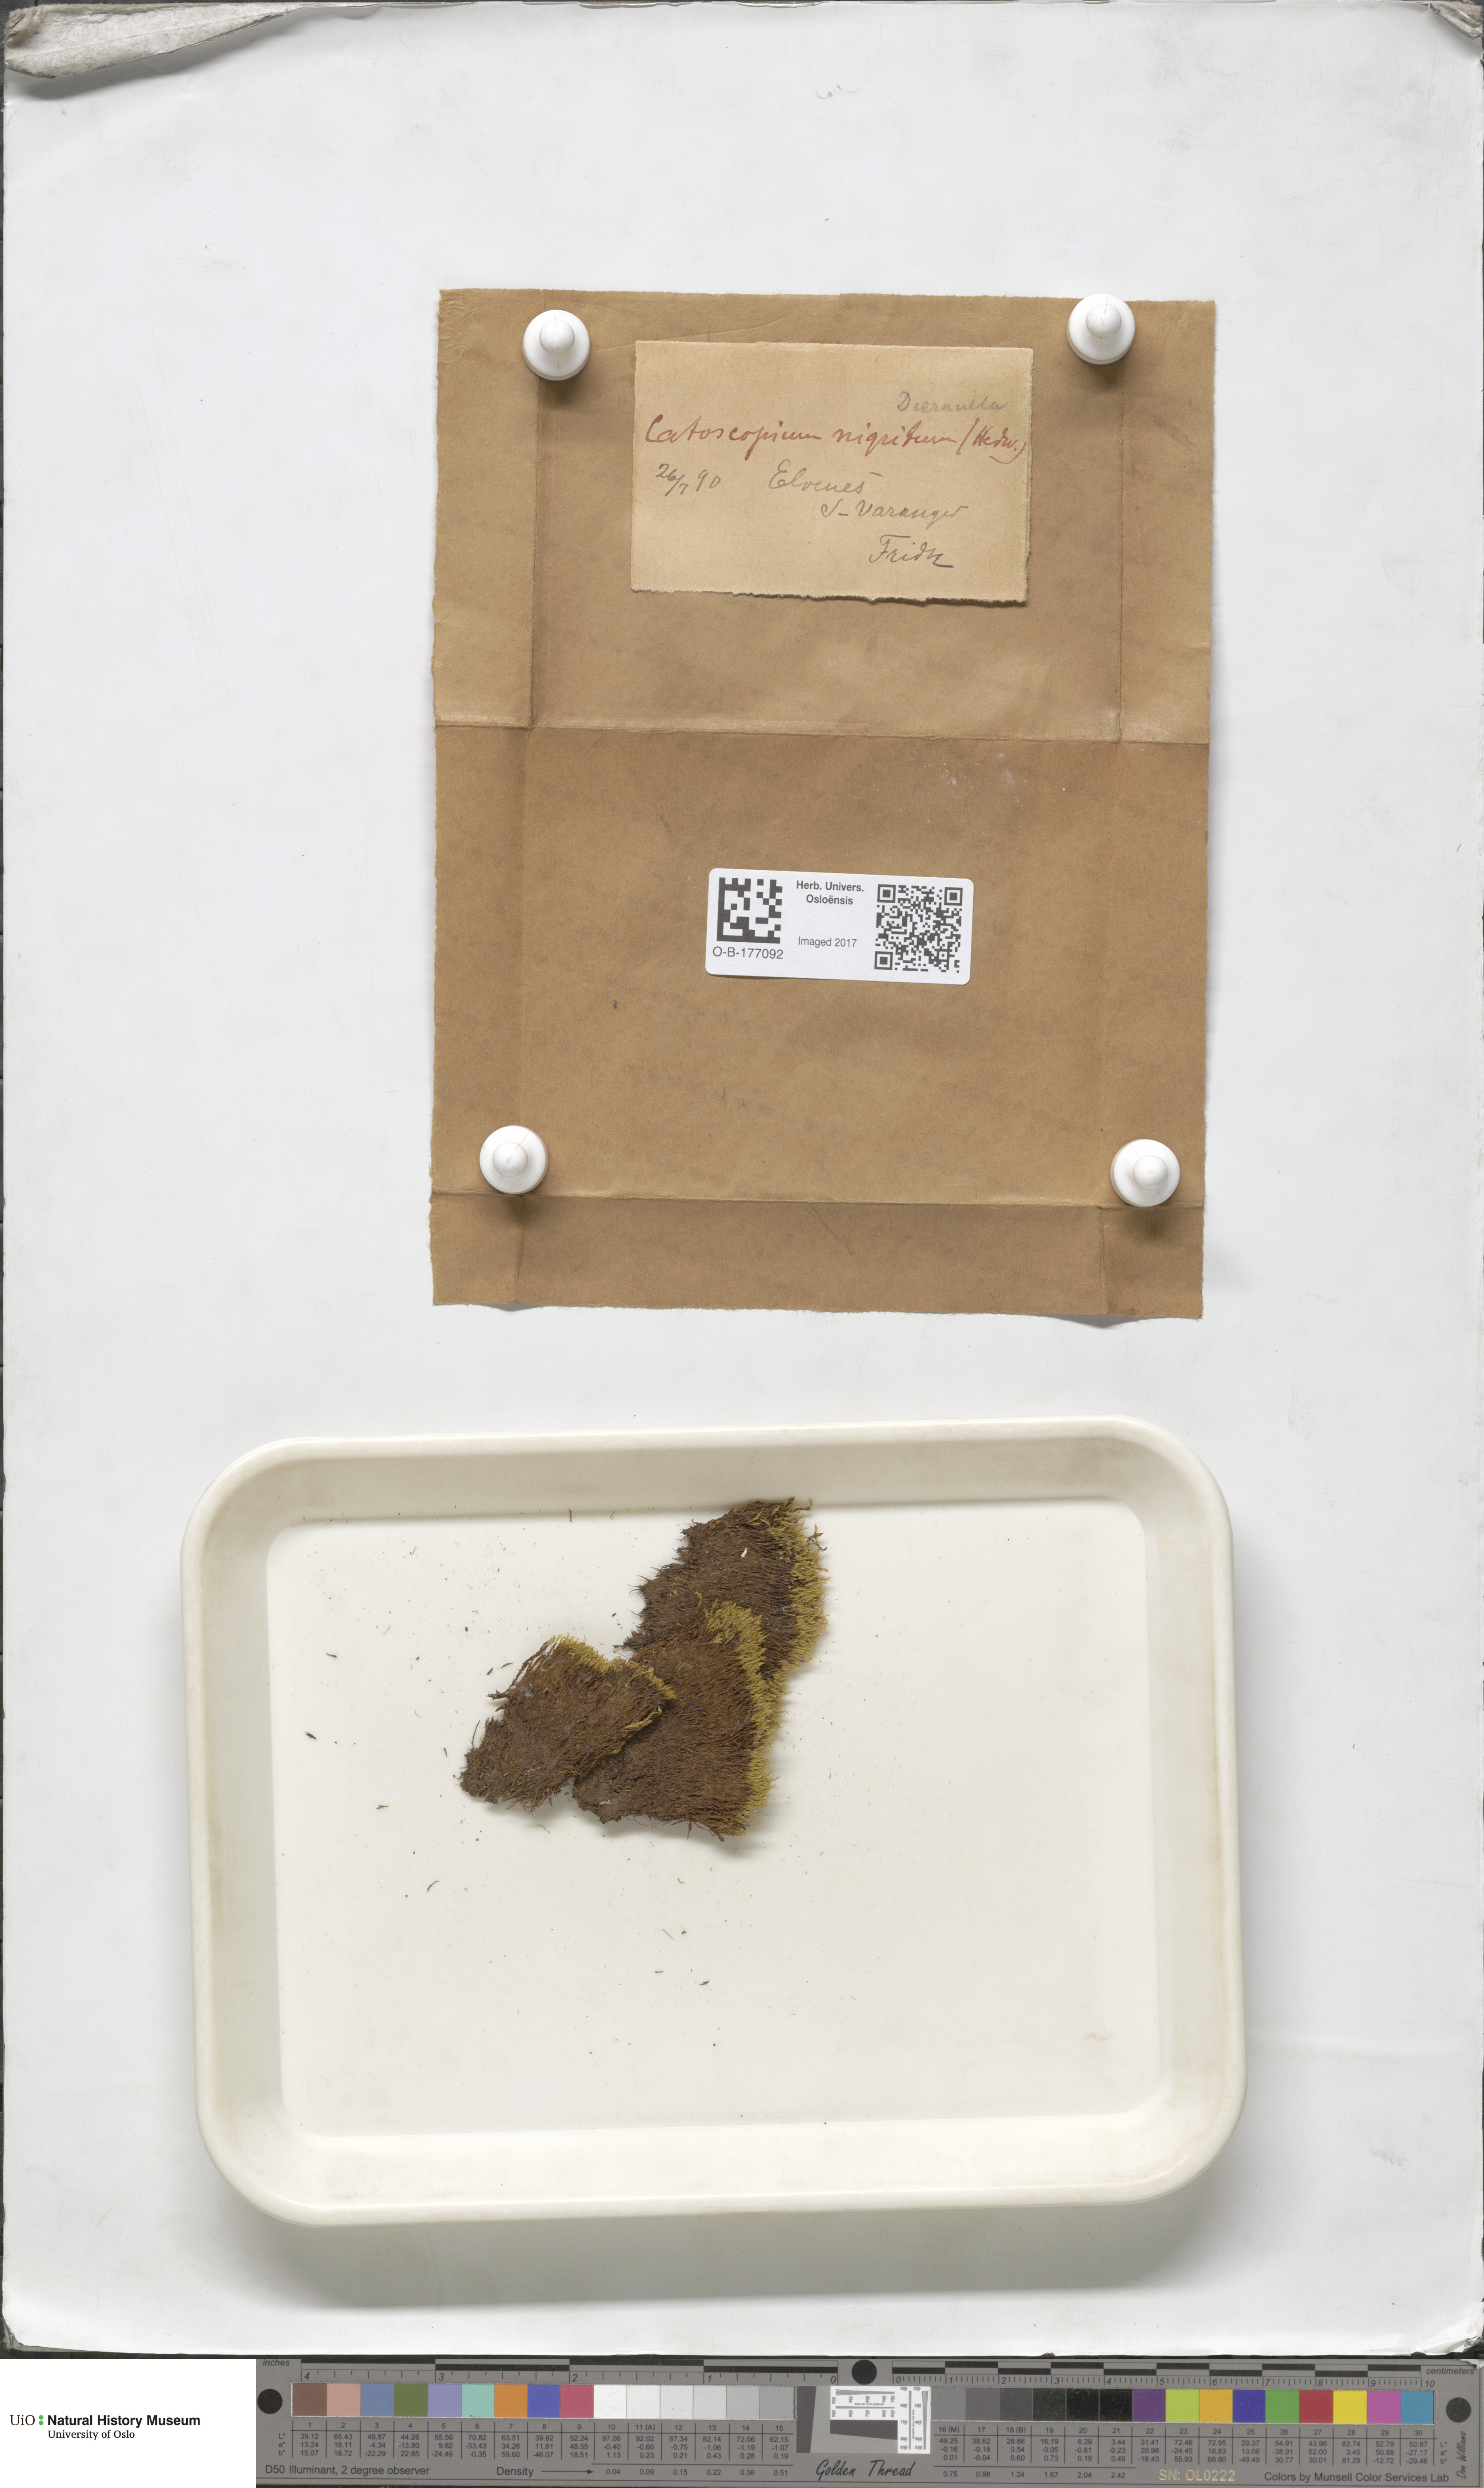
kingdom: Plantae
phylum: Bryophyta
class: Bryopsida
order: Catoscopiales
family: Catoscopiaceae
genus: Catoscopium
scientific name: Catoscopium nigritum
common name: Black golf club moss
